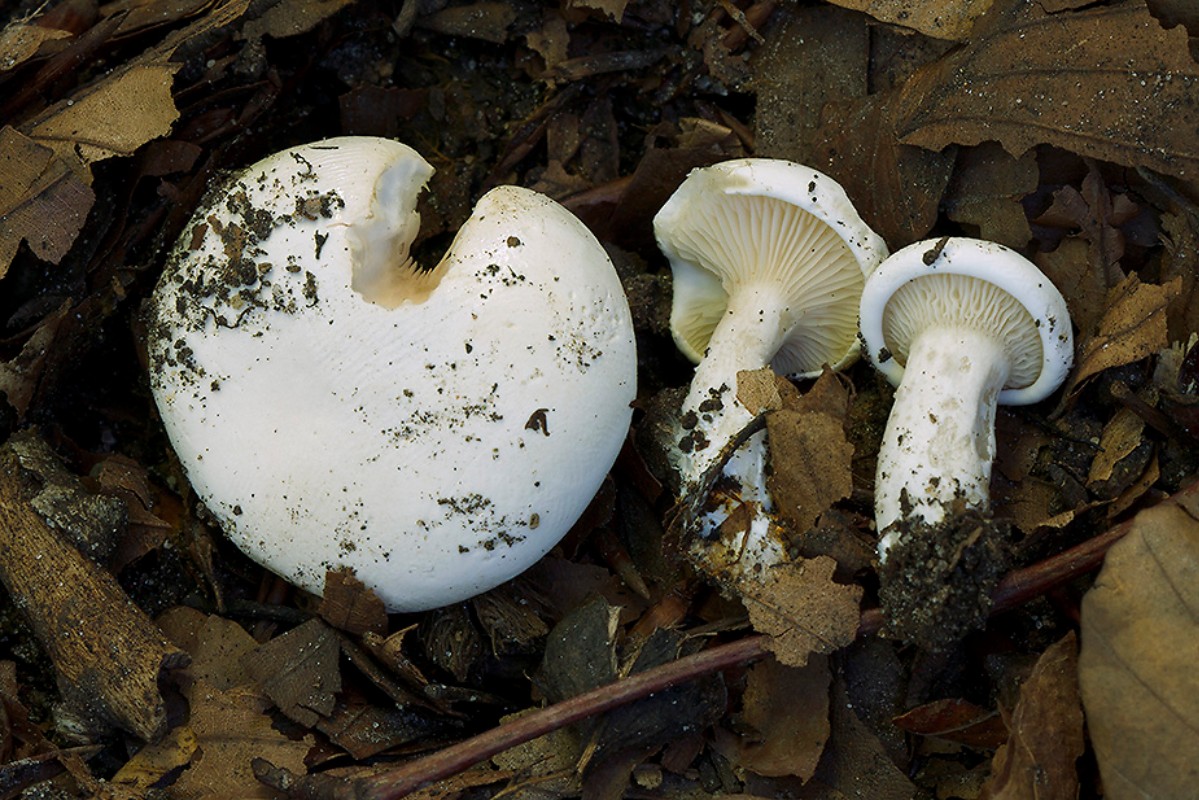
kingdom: Fungi
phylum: Basidiomycota
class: Agaricomycetes
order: Agaricales
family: Entolomataceae
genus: Clitopilus
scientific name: Clitopilus abprunulus
